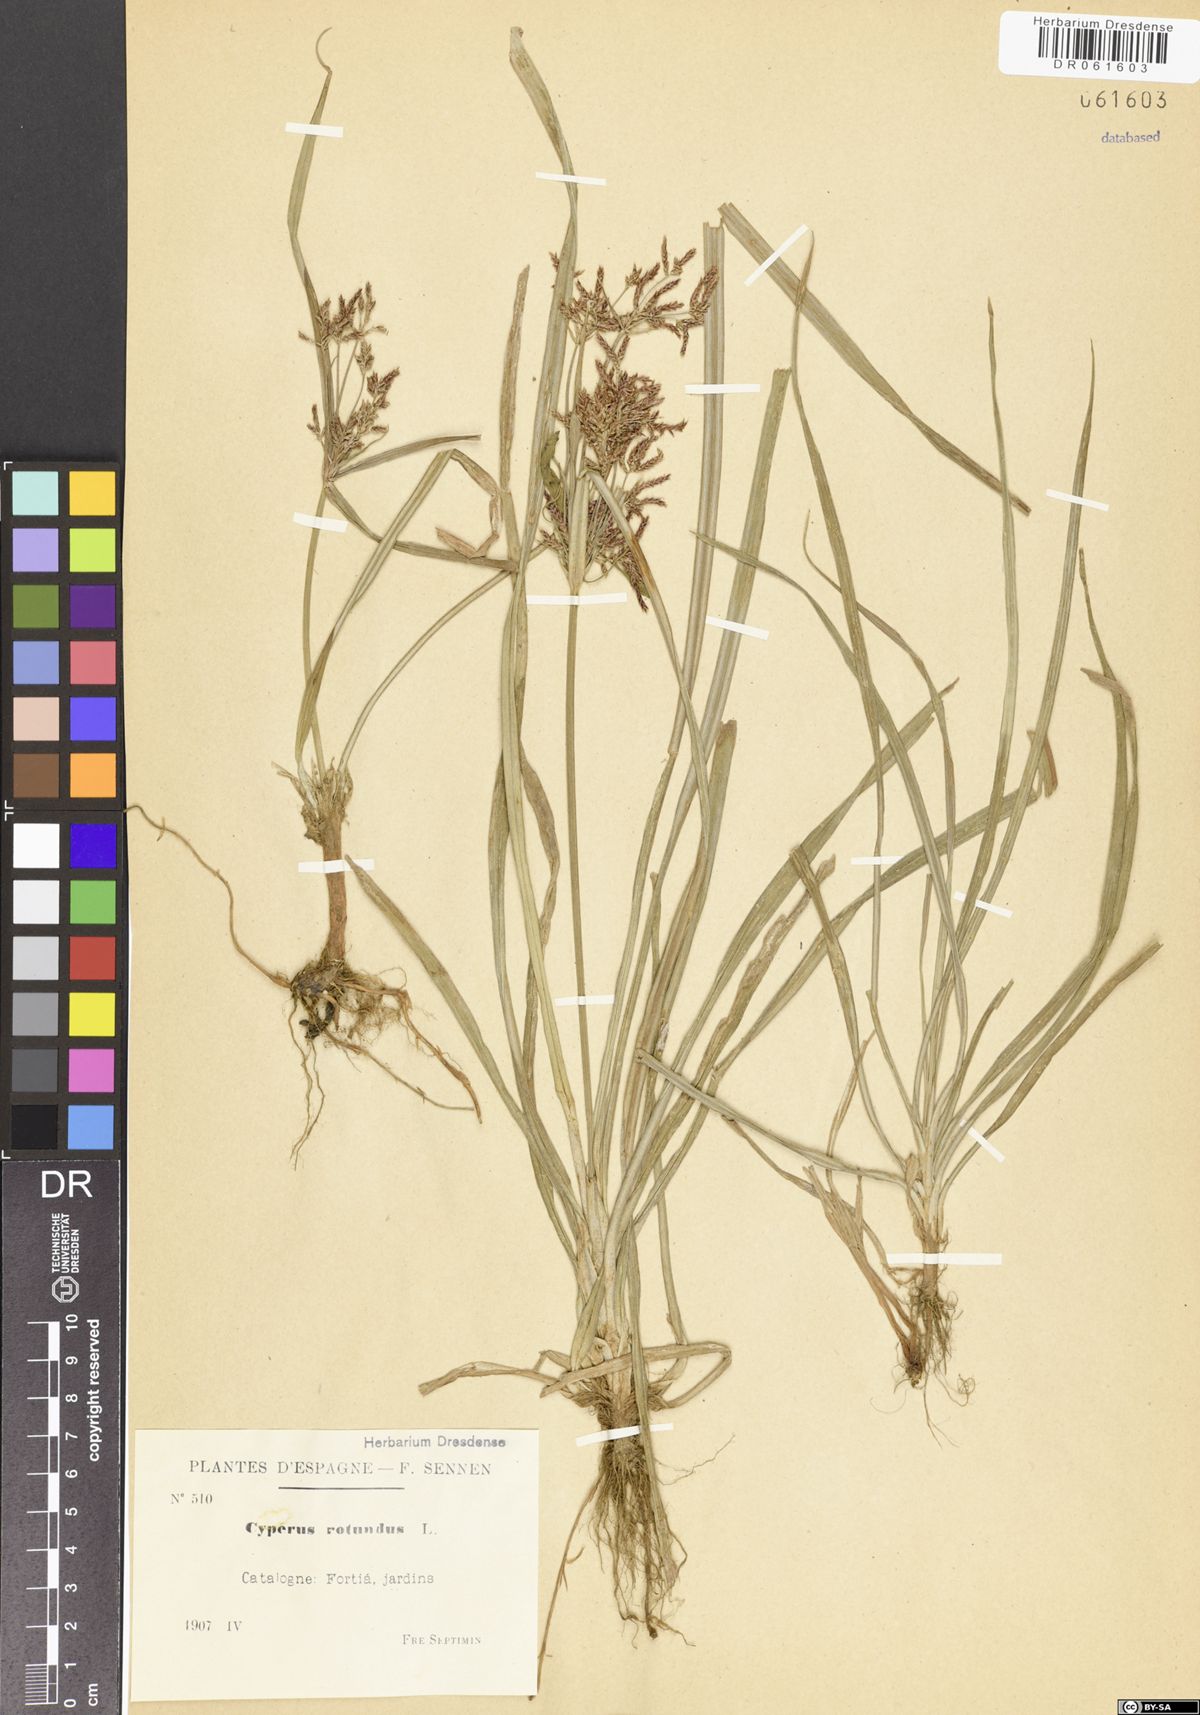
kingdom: Plantae
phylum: Tracheophyta
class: Liliopsida
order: Poales
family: Cyperaceae
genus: Cyperus
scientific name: Cyperus rotundus
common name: Nutgrass
